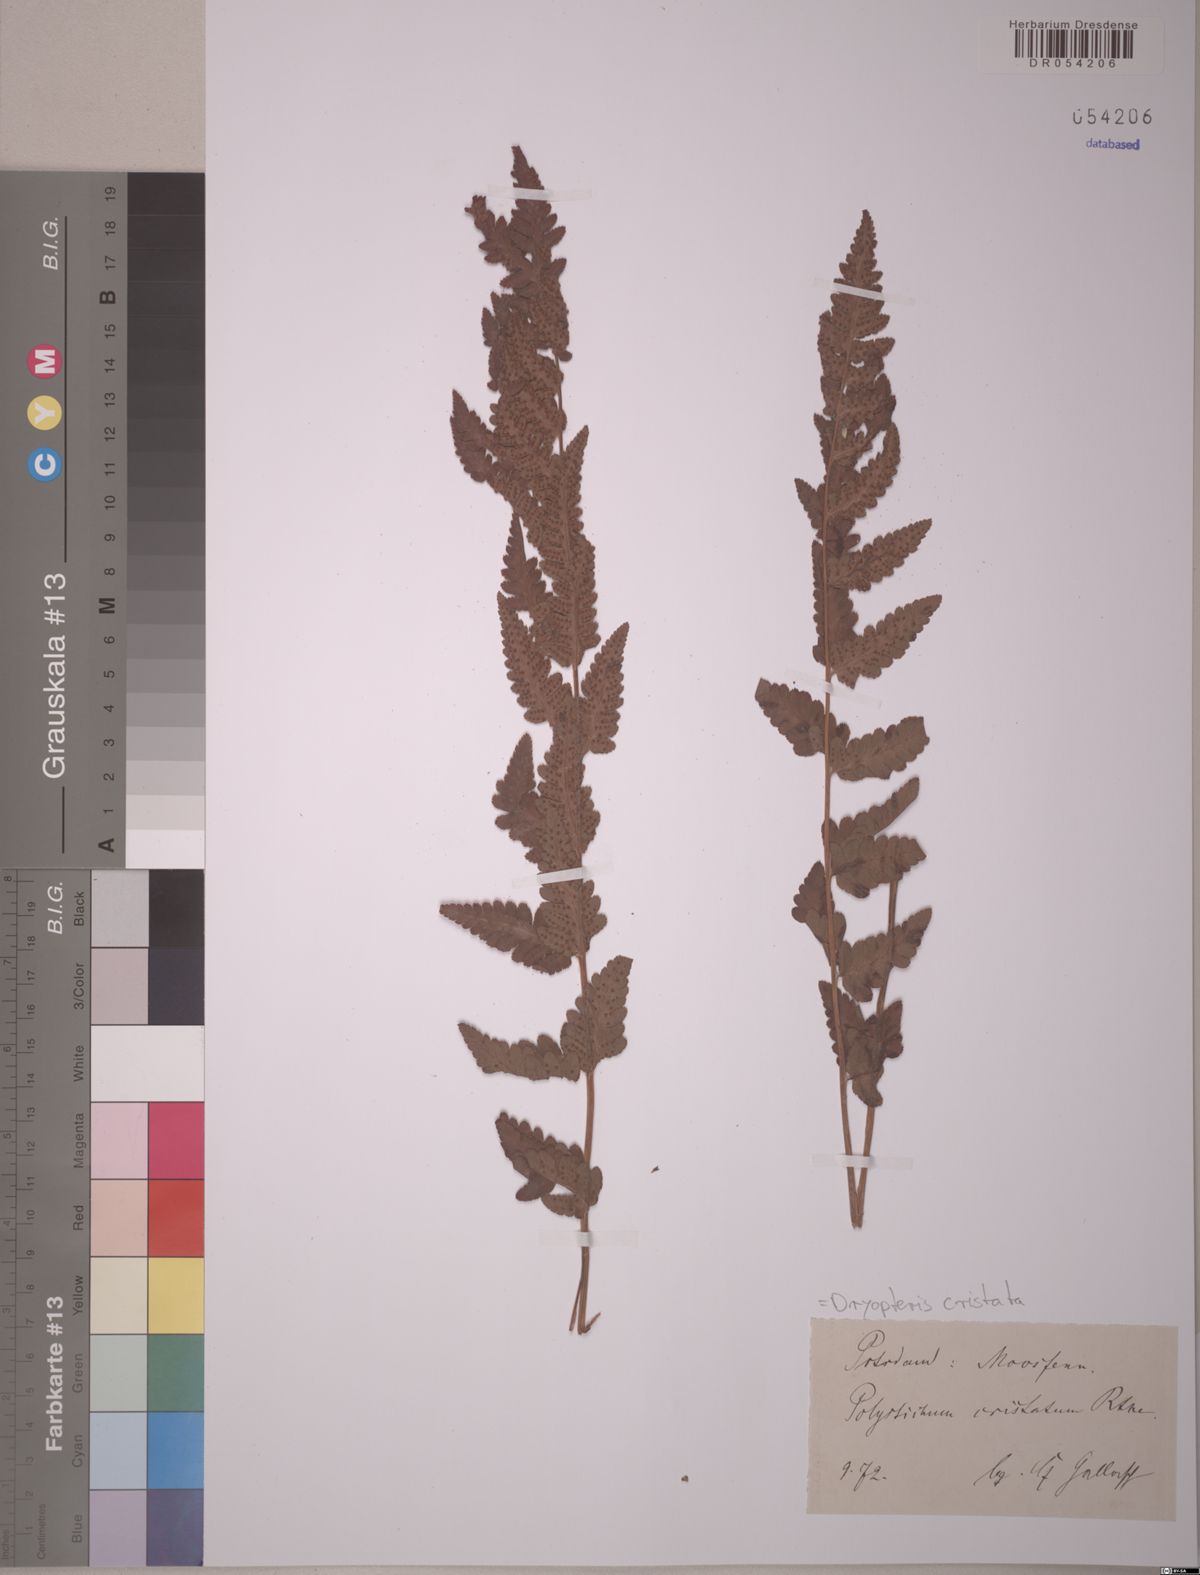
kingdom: Plantae
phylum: Tracheophyta
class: Polypodiopsida
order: Polypodiales
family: Dryopteridaceae
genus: Dryopteris
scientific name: Dryopteris cristata
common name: Crested wood fern
